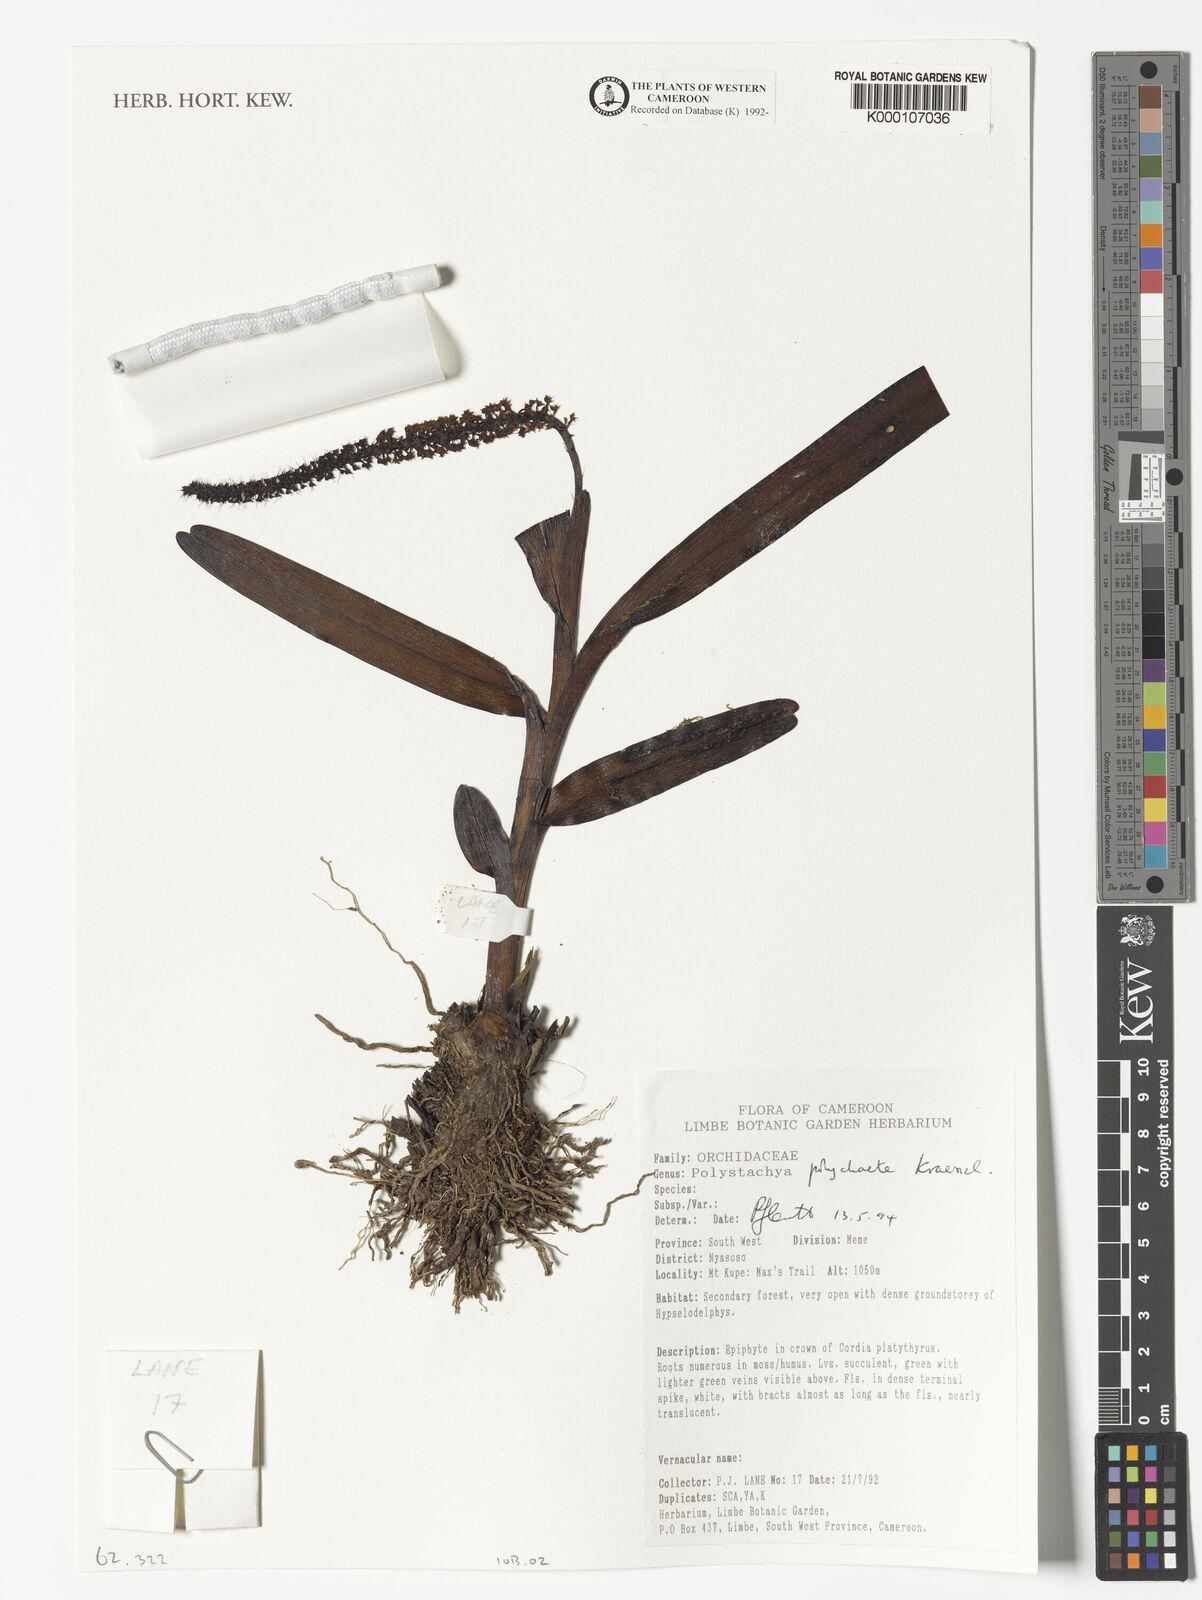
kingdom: Plantae
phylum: Tracheophyta
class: Liliopsida
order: Asparagales
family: Orchidaceae
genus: Polystachya
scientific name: Polystachya polychaete
